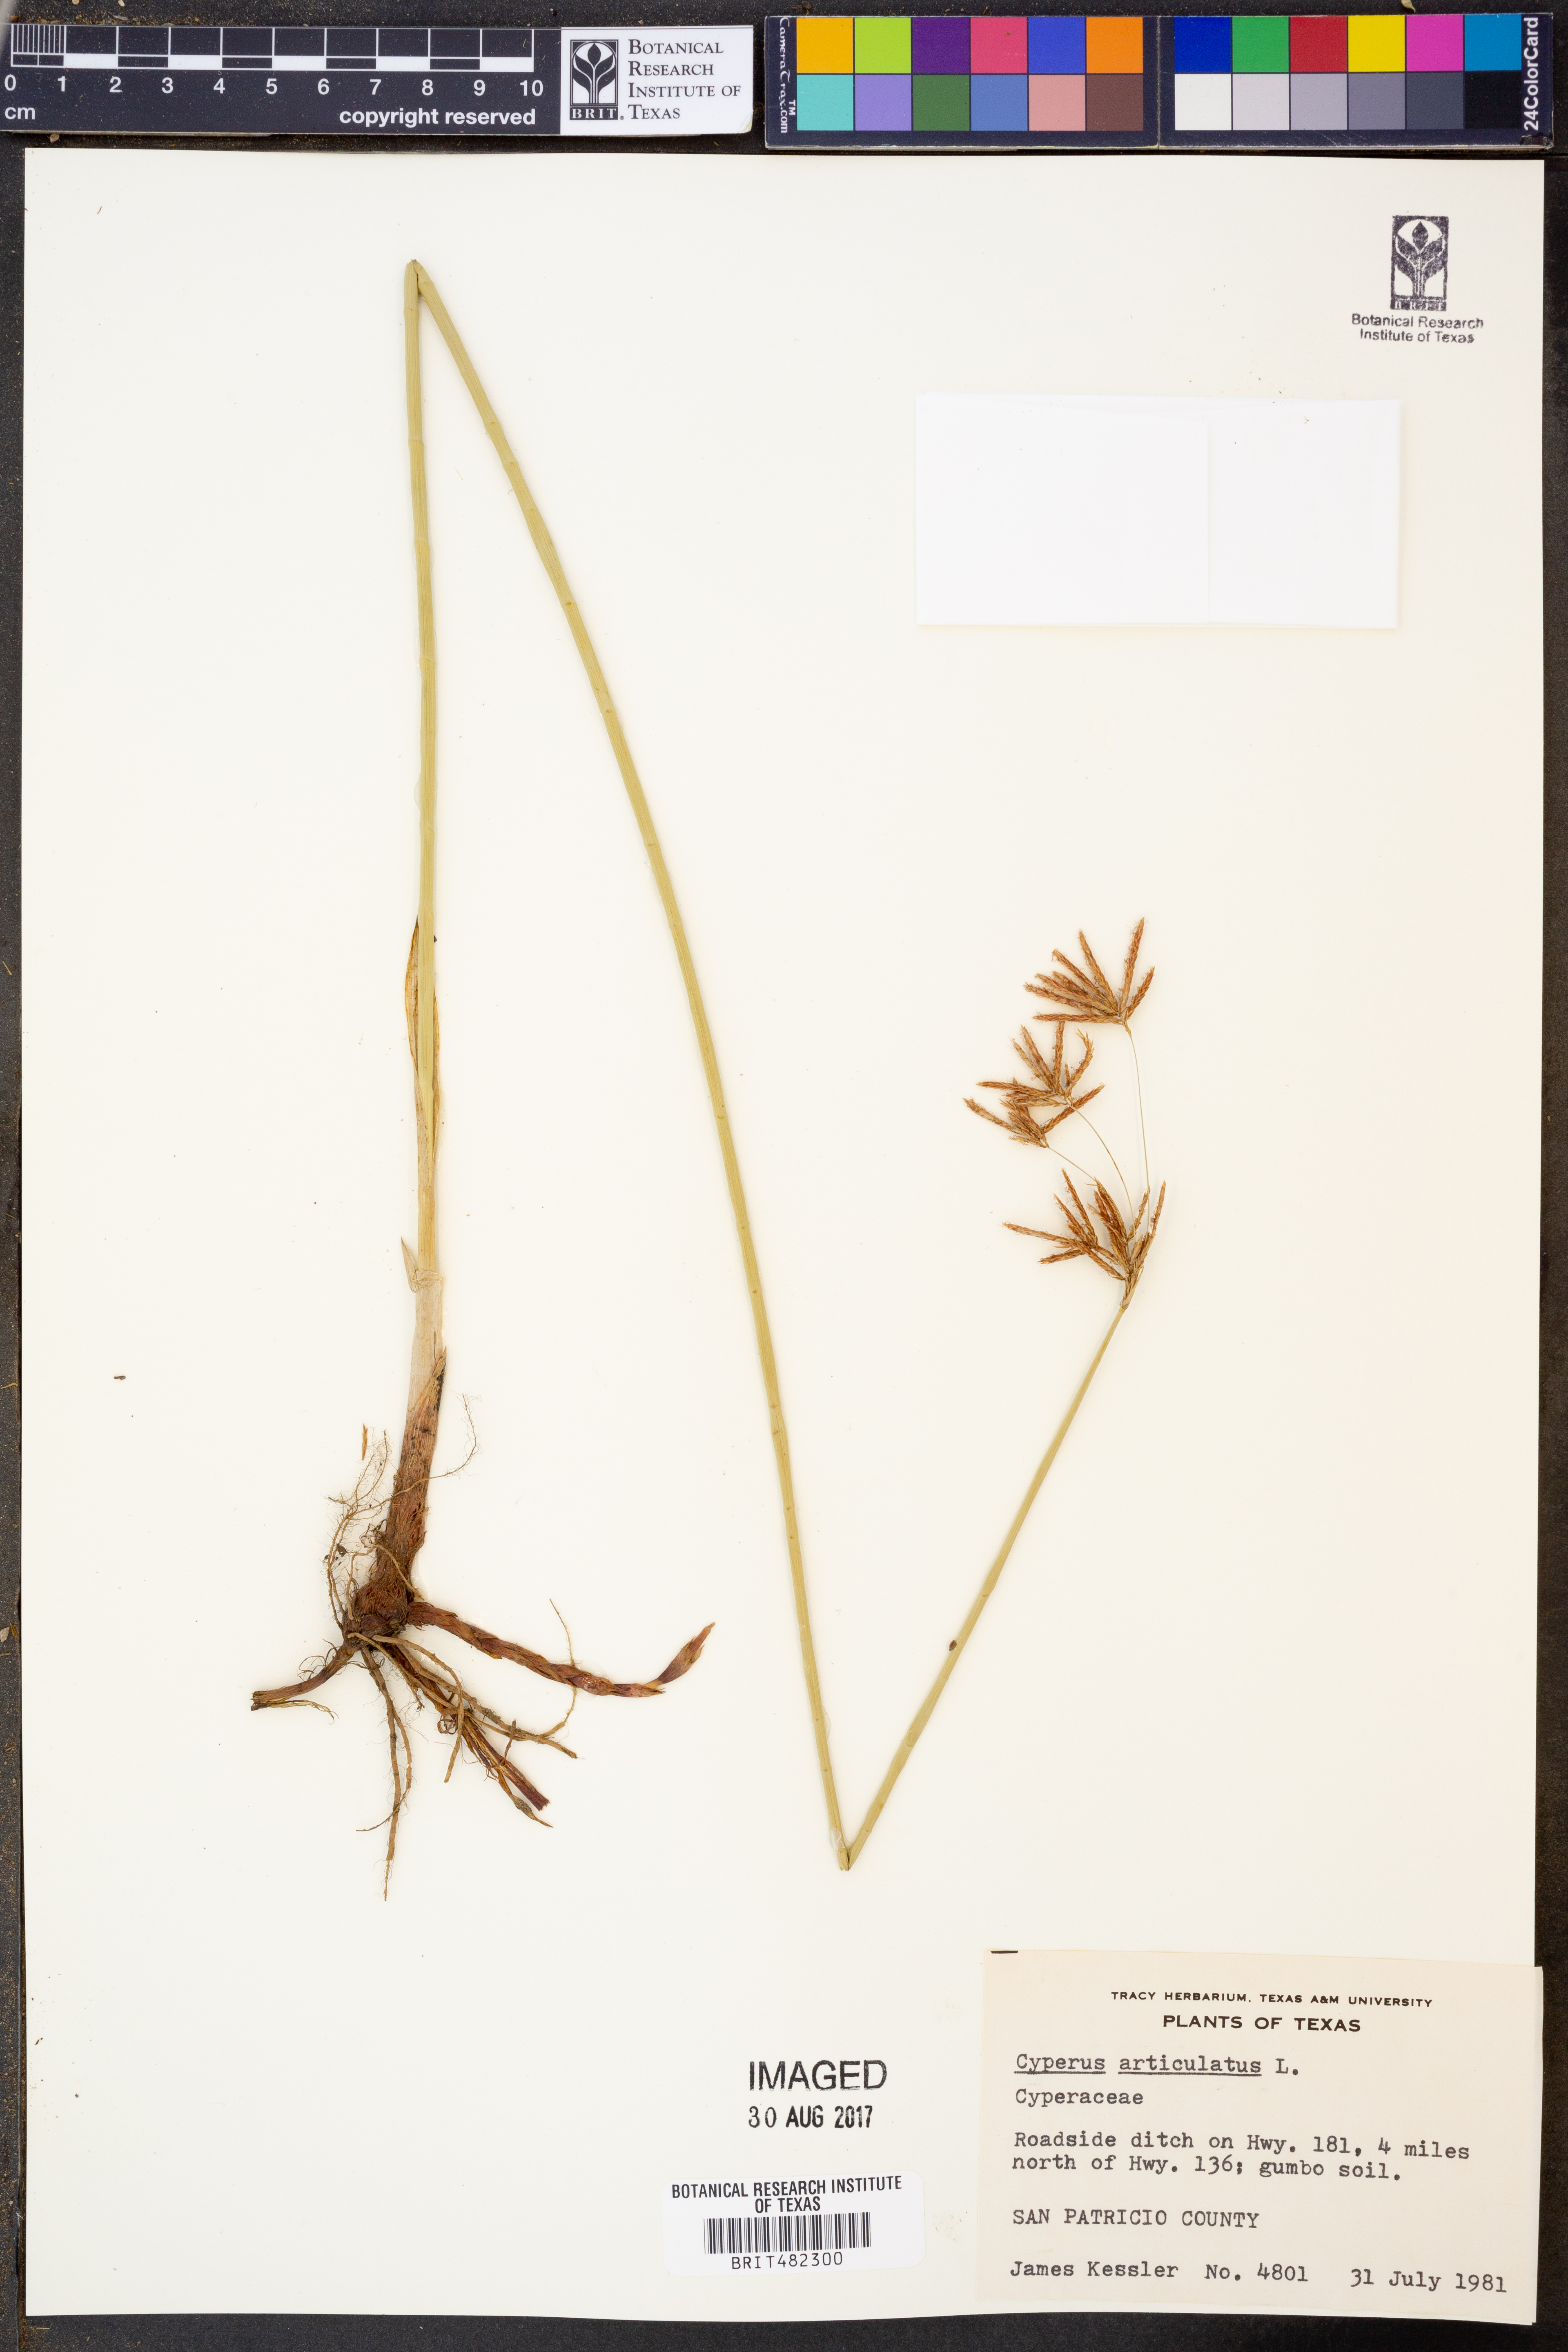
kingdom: Plantae
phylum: Tracheophyta
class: Liliopsida
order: Poales
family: Cyperaceae
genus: Cyperus
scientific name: Cyperus articulatus
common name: Jointed flatsedge
